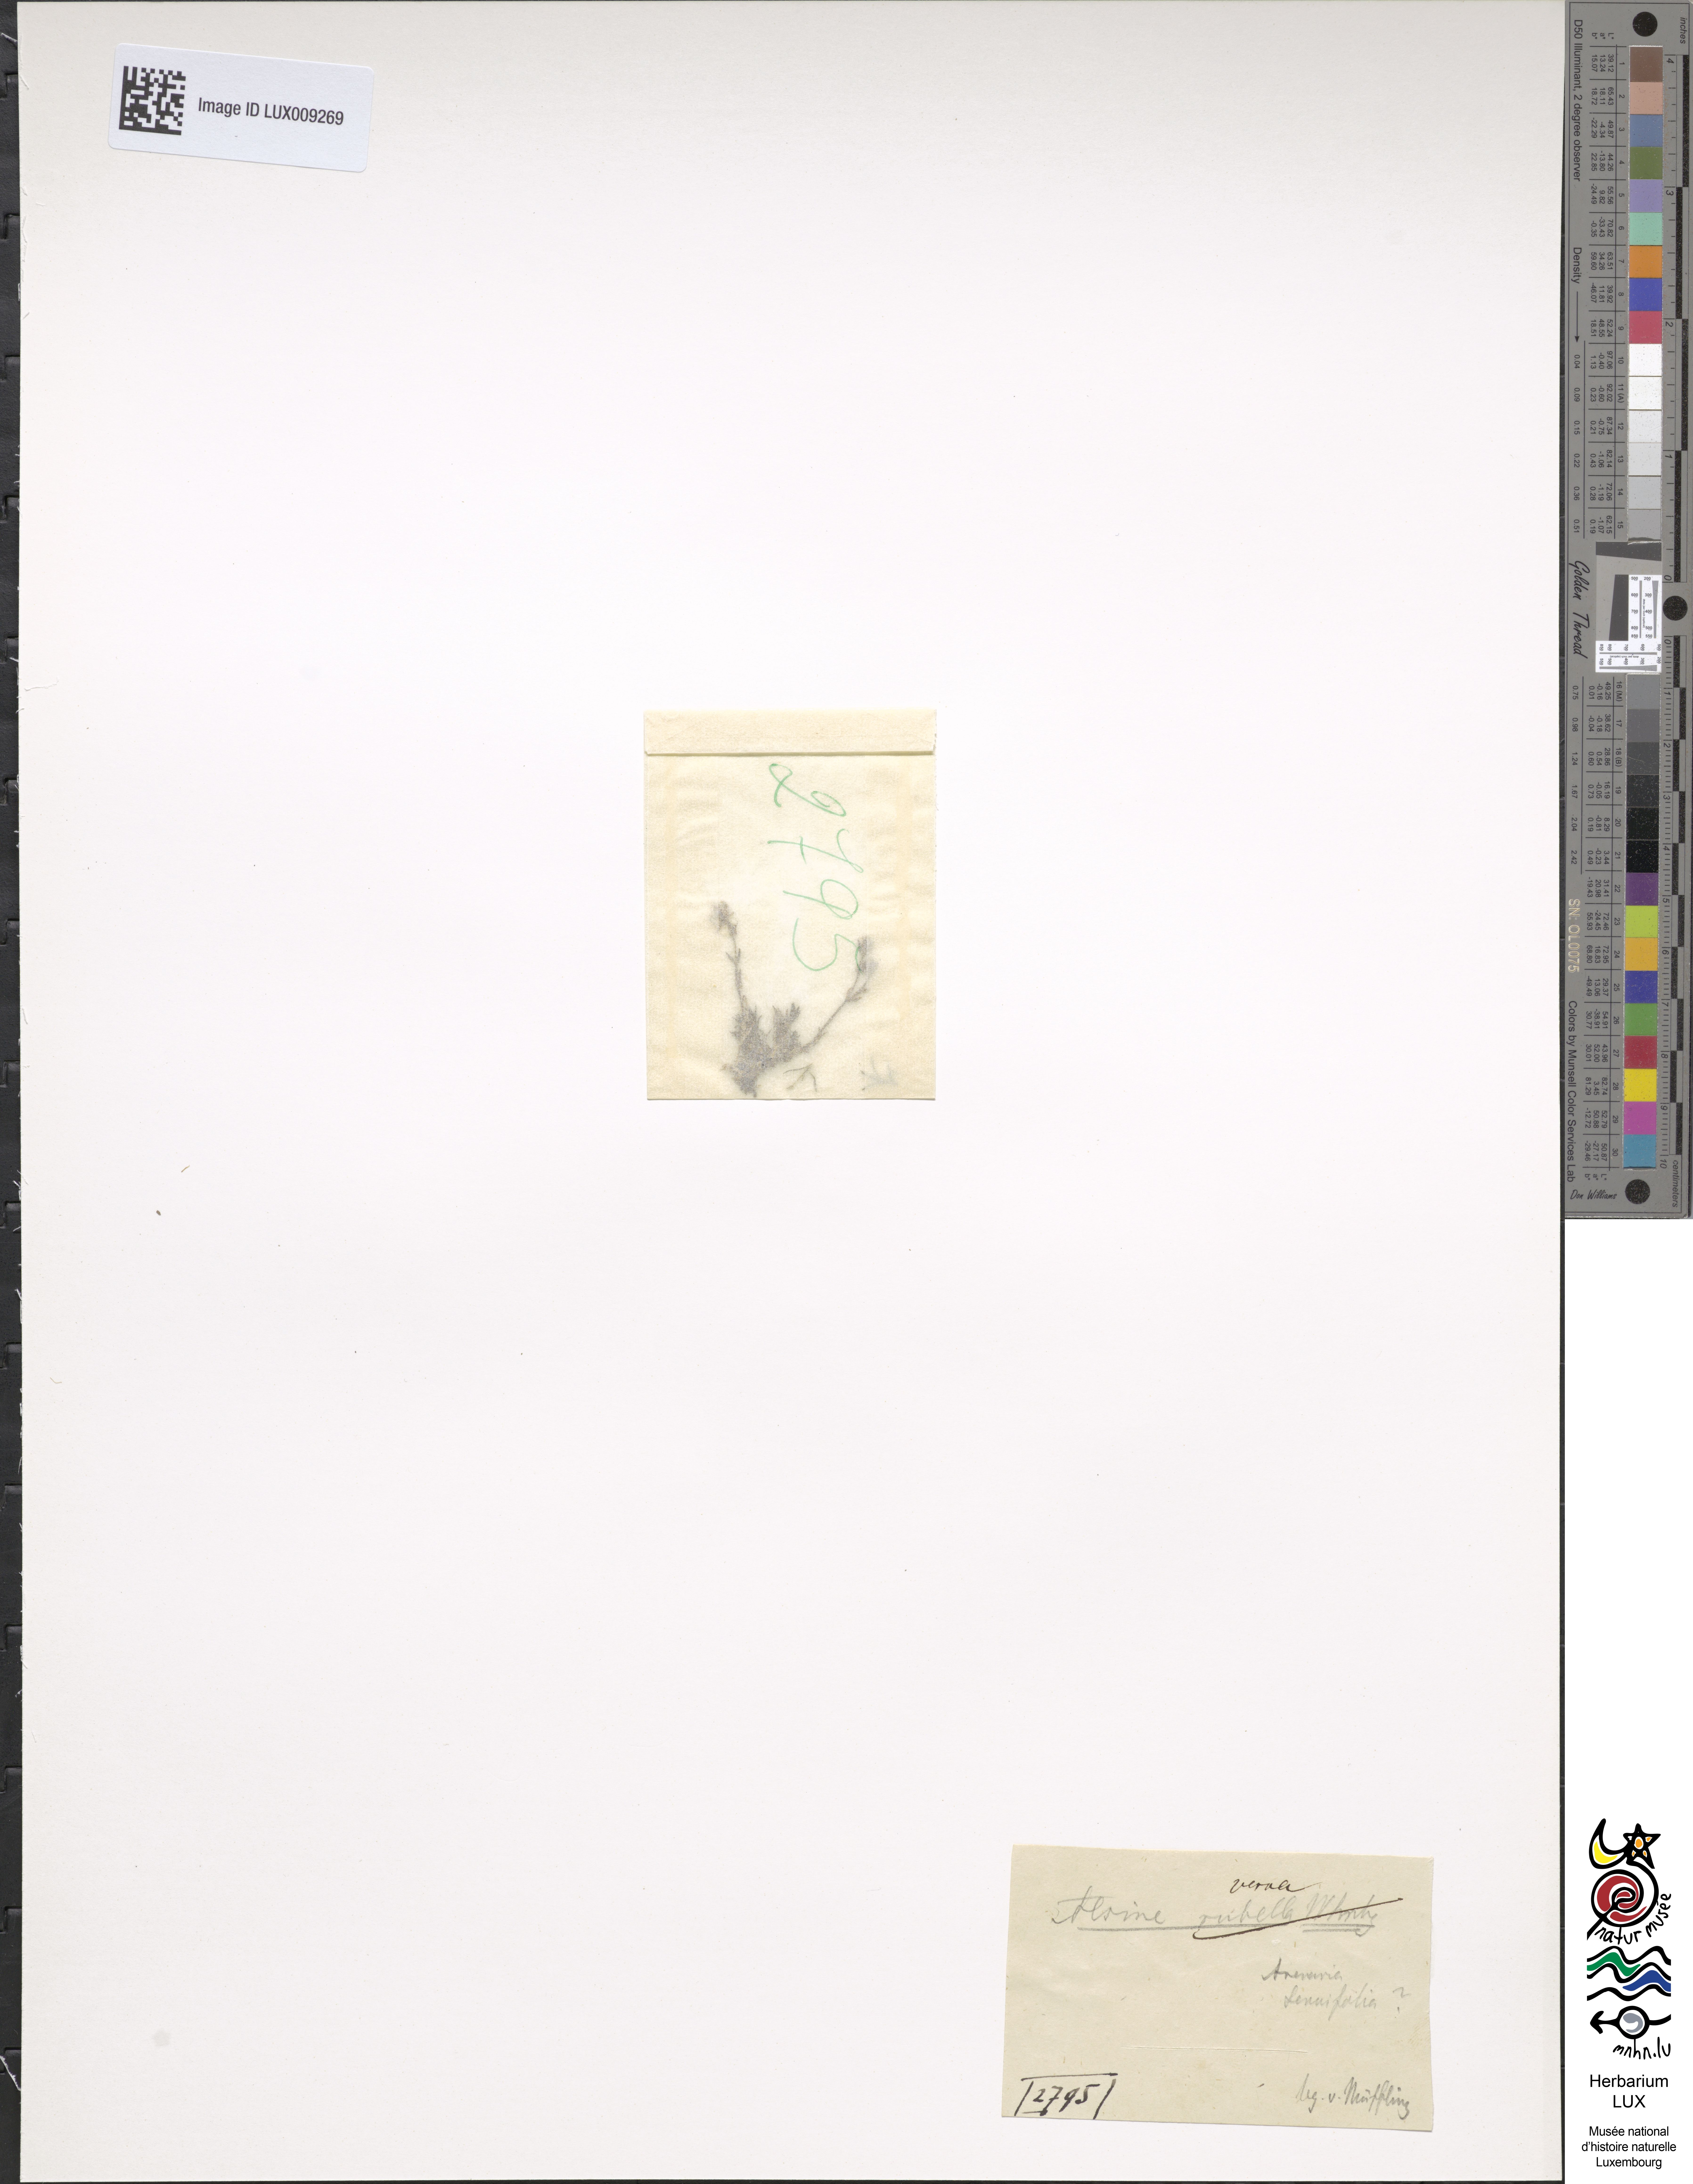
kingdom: Plantae
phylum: Tracheophyta
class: Magnoliopsida
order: Caryophyllales
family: Caryophyllaceae
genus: Sabulina
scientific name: Sabulina verna
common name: Spring sandwort
